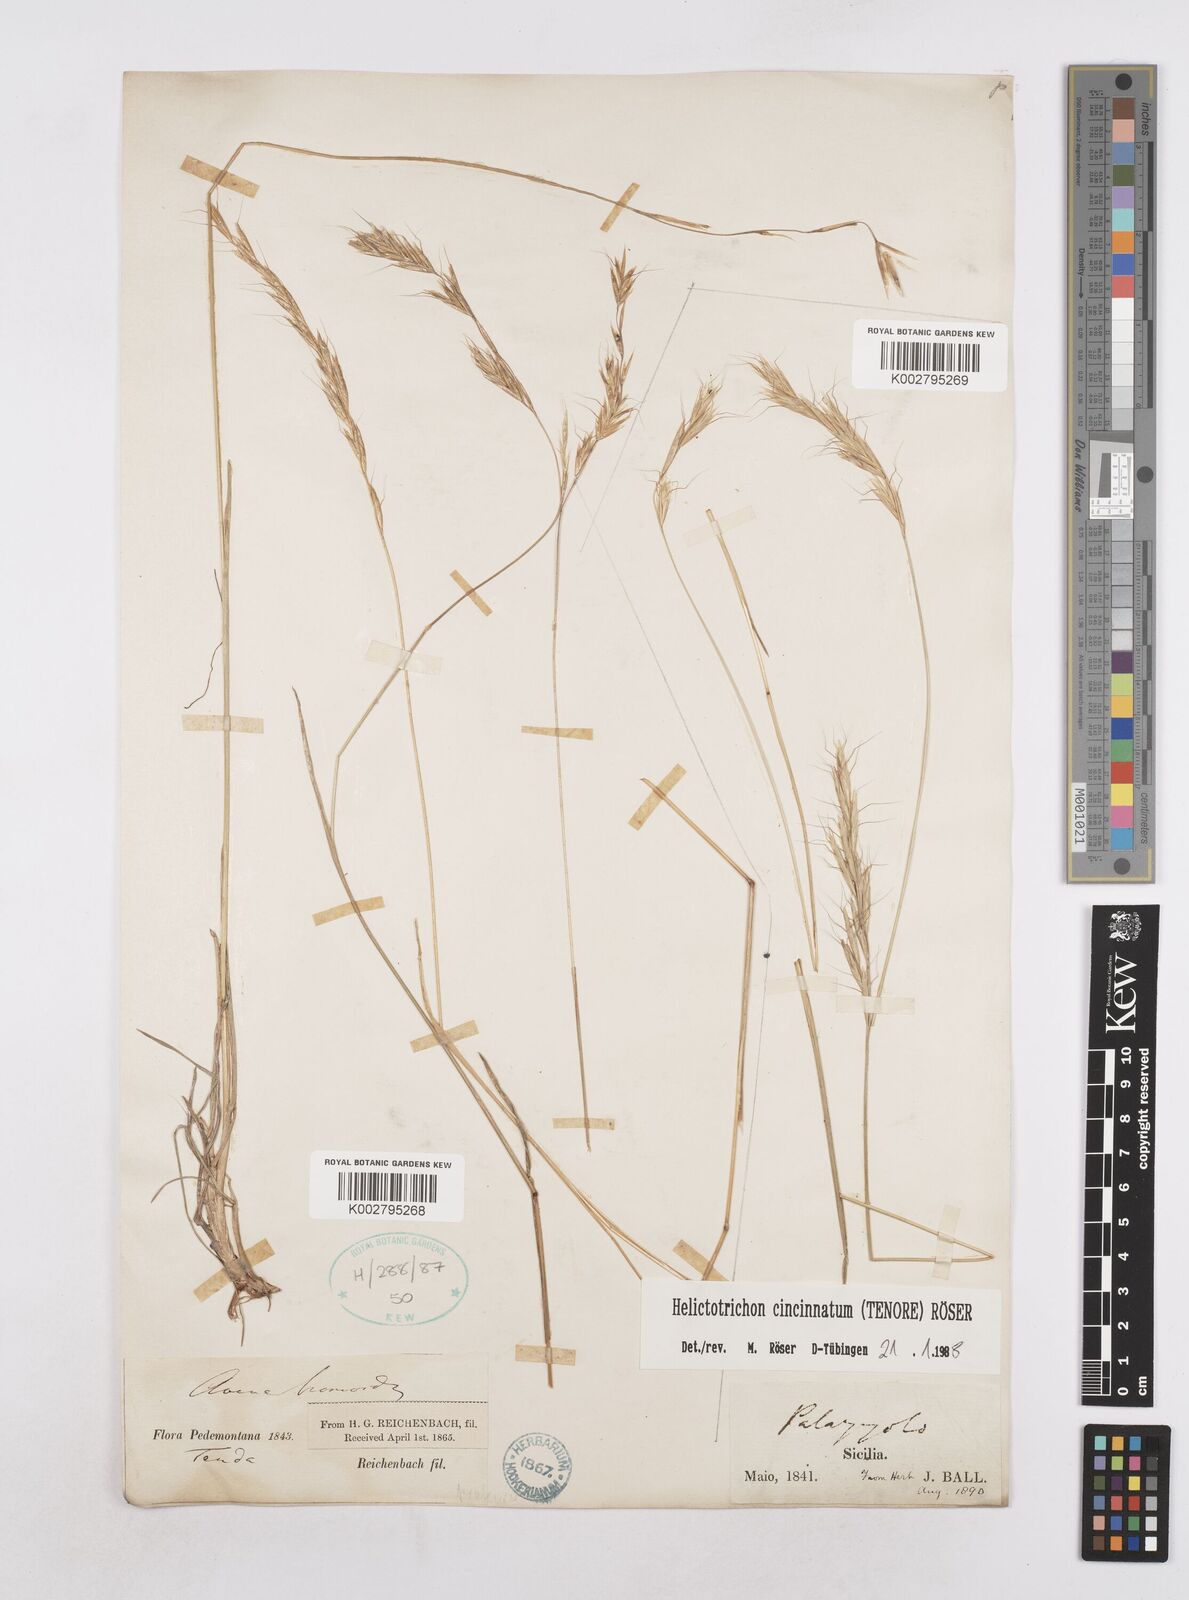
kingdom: Plantae
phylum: Tracheophyta
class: Liliopsida
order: Poales
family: Poaceae
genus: Helictochloa
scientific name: Helictochloa cincinnata
